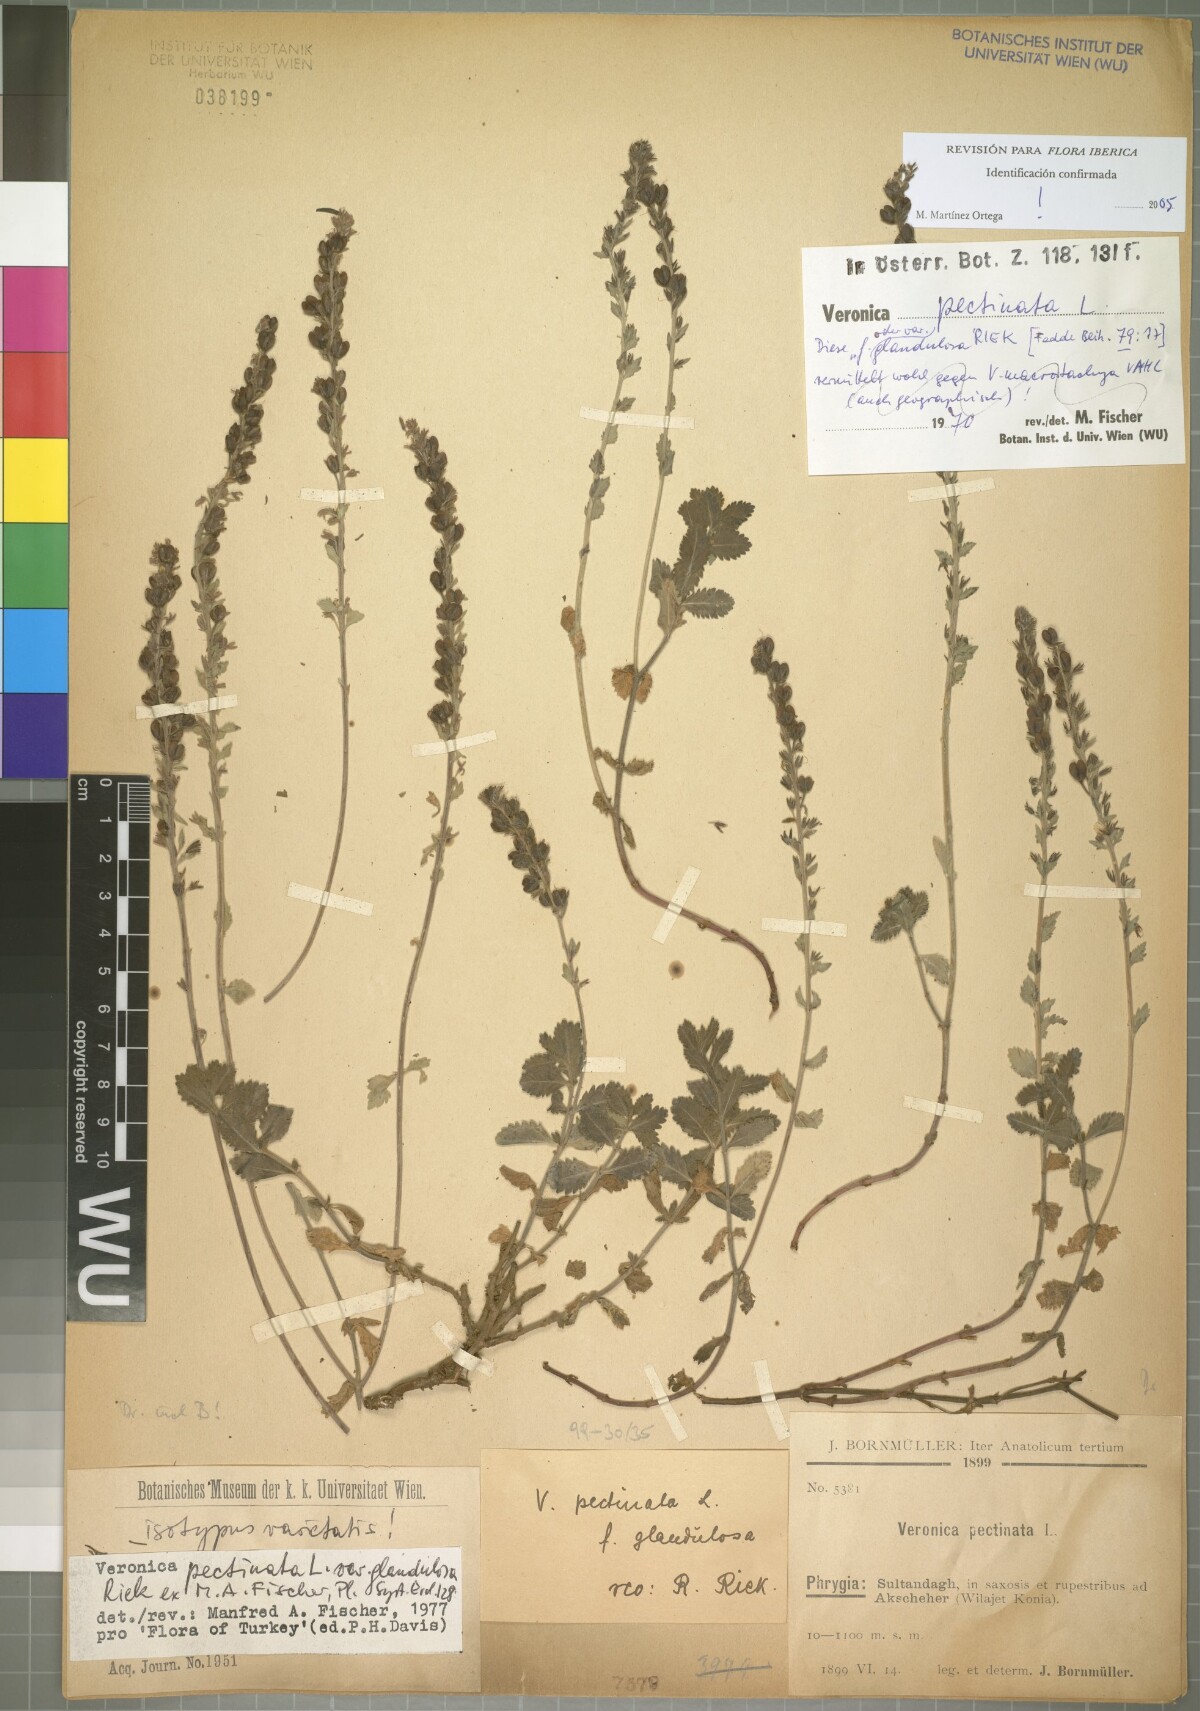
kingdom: Plantae
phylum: Tracheophyta
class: Magnoliopsida
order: Lamiales
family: Plantaginaceae
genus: Veronica
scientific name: Veronica pectinata
